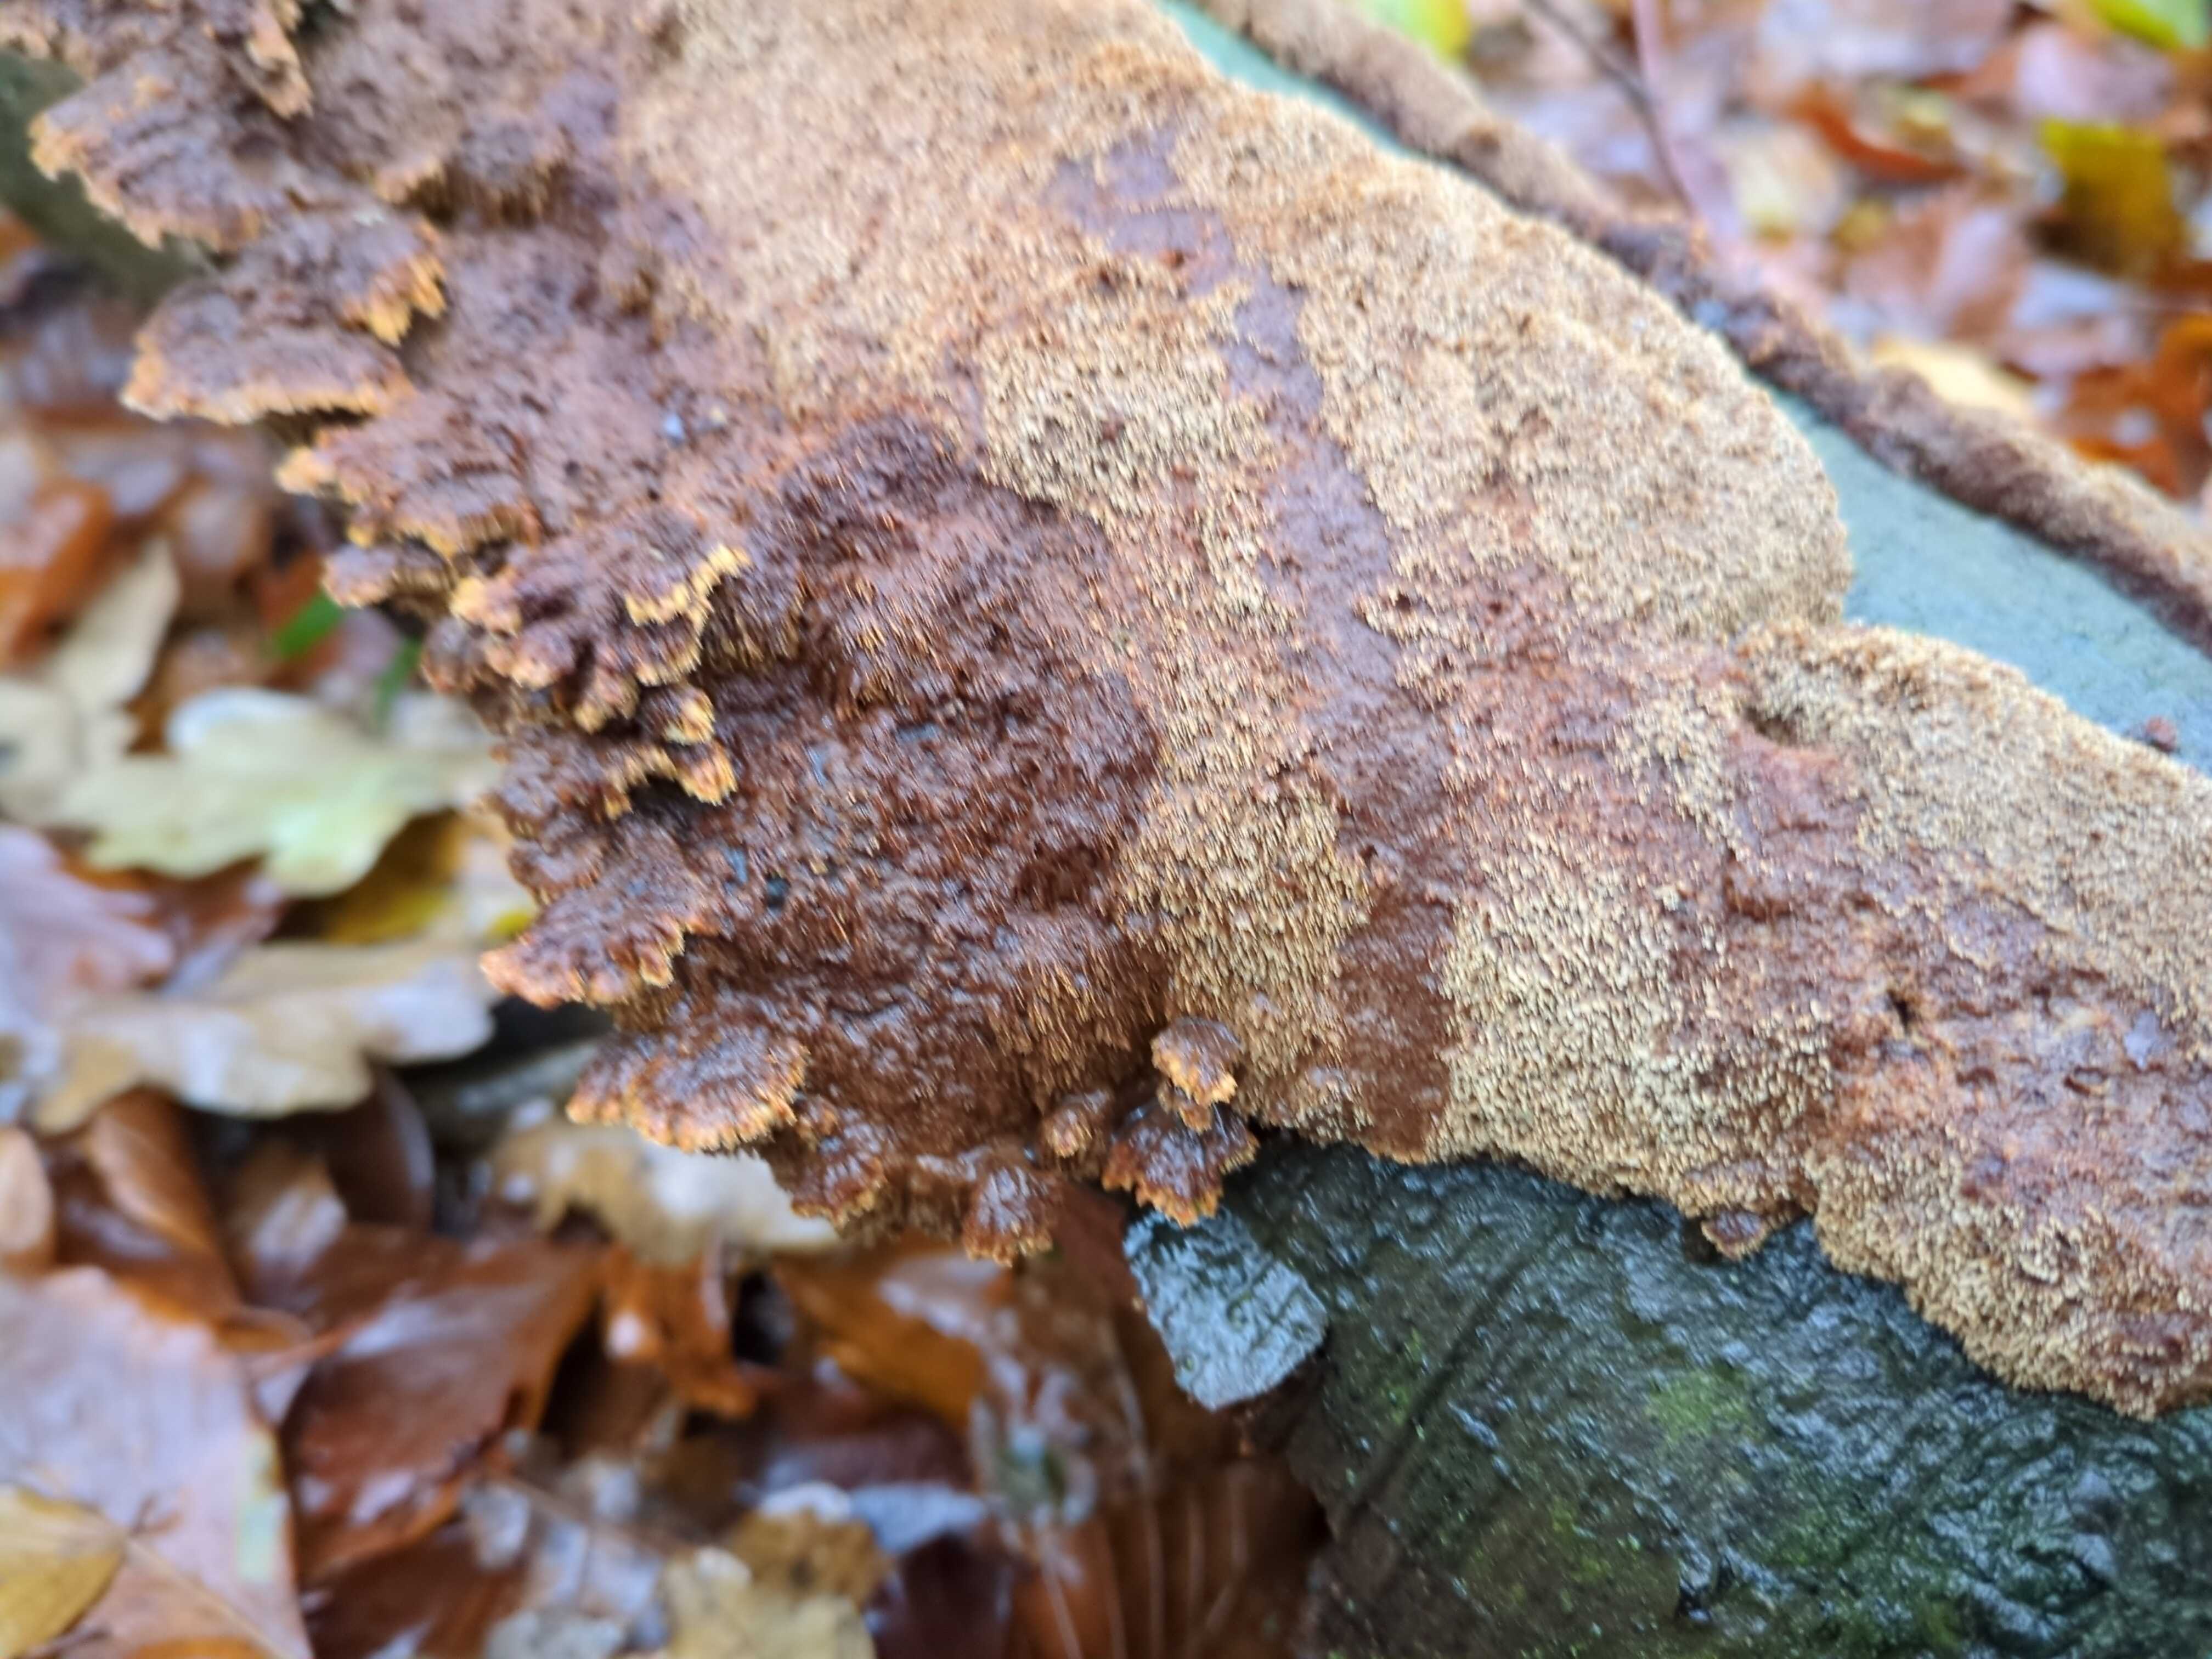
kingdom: Fungi
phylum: Basidiomycota
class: Agaricomycetes
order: Hymenochaetales
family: Hymenochaetaceae
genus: Mensularia
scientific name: Mensularia nodulosa
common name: bøge-spejlporesvamp
